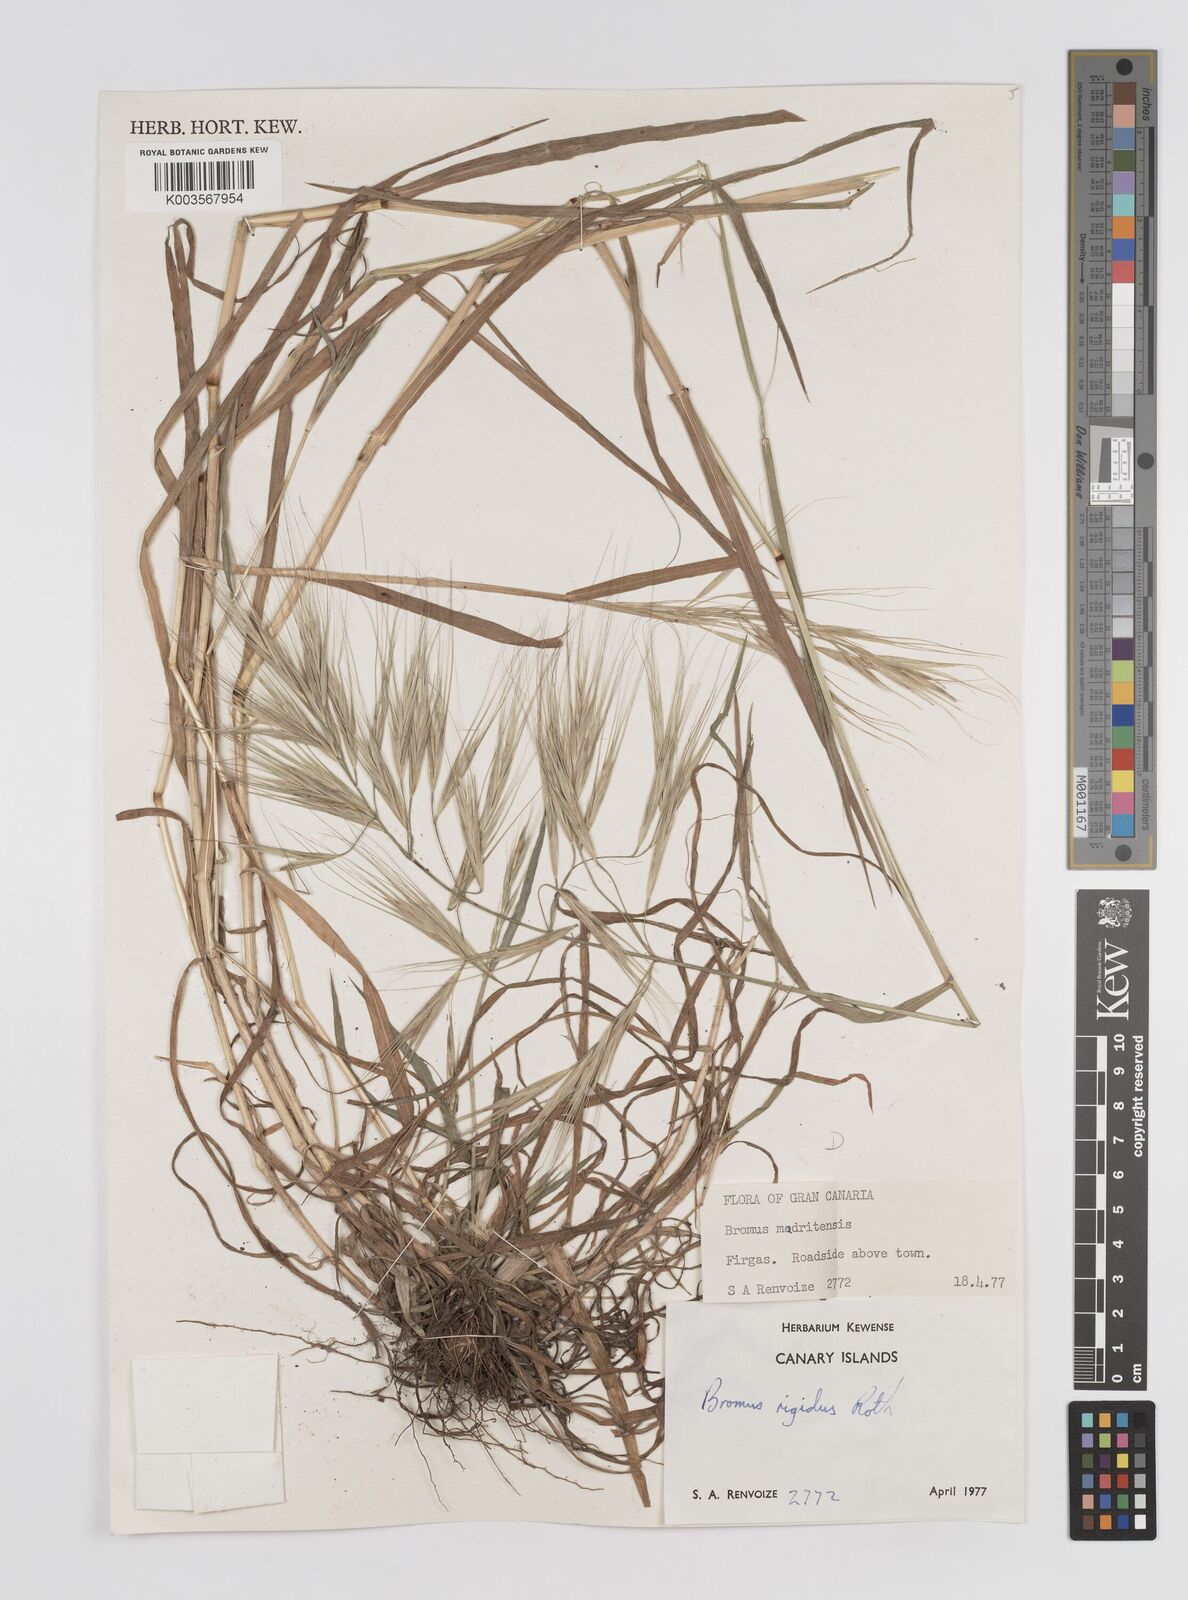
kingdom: Plantae
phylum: Tracheophyta
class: Liliopsida
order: Poales
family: Poaceae
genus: Bromus
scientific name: Bromus diandrus
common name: Ripgut brome
